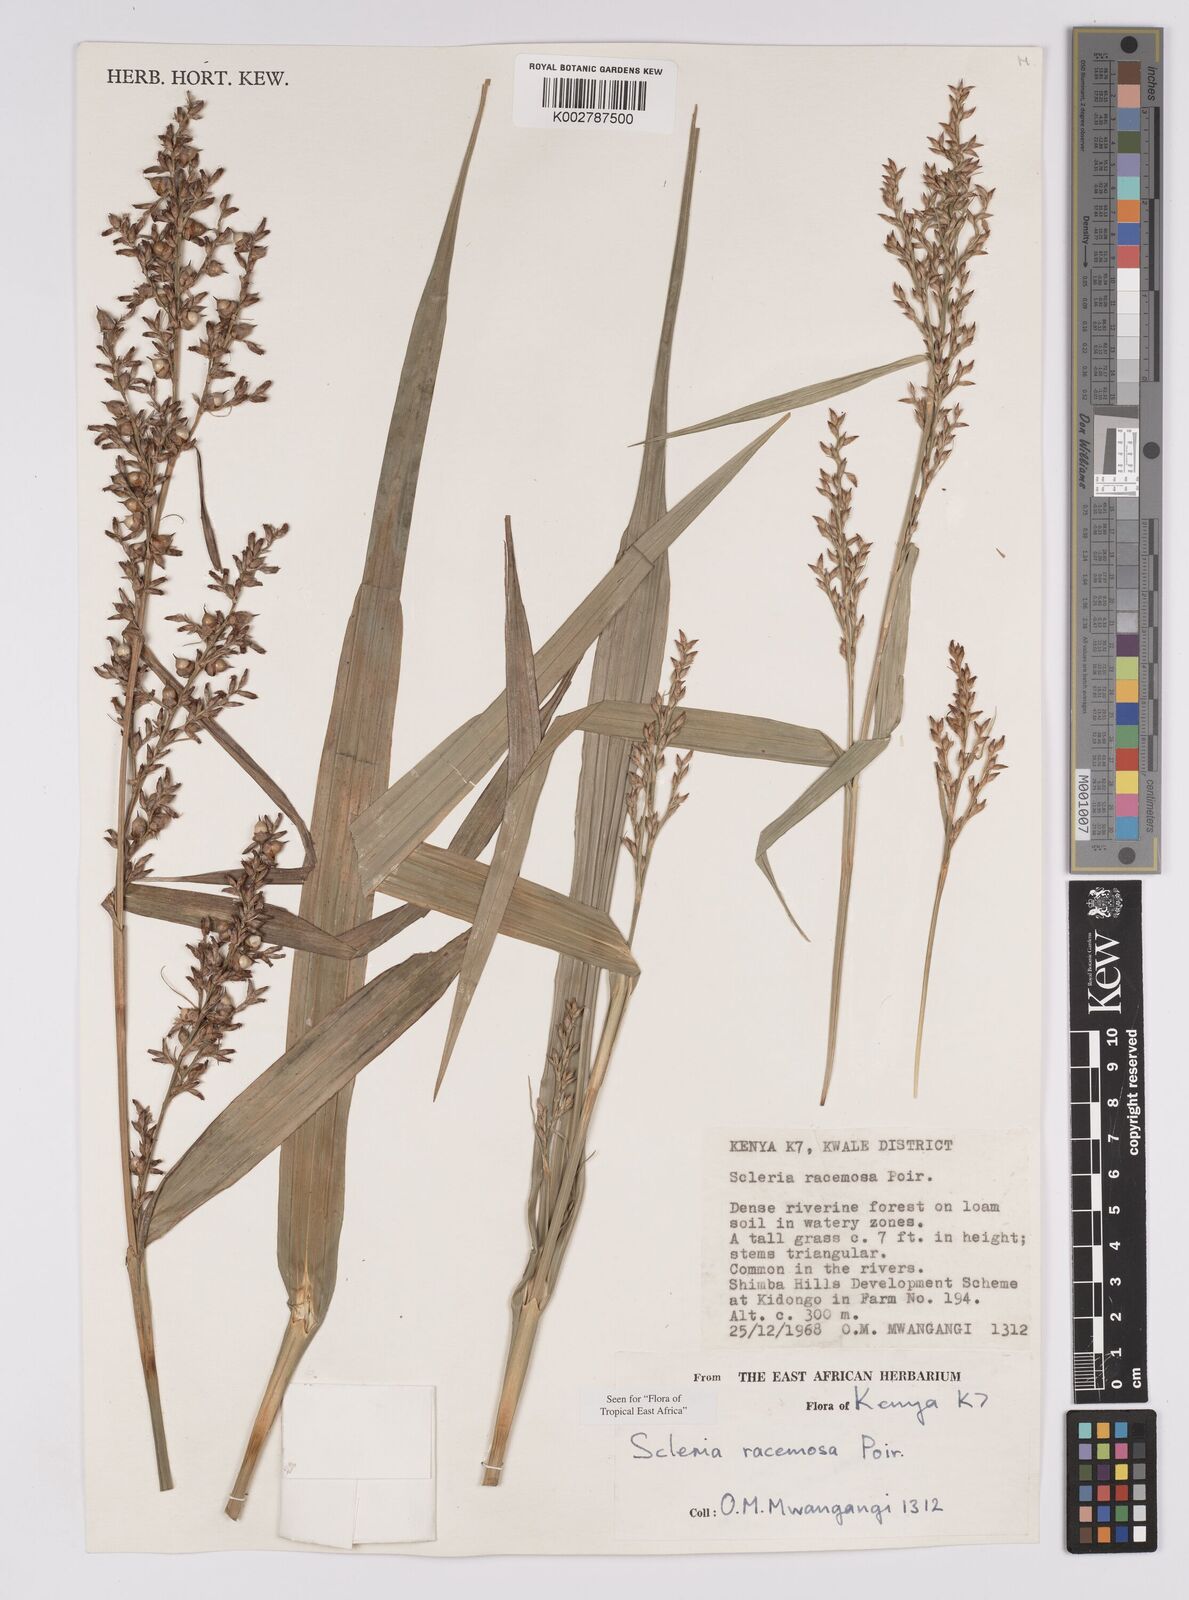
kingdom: Plantae
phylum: Tracheophyta
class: Liliopsida
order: Poales
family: Cyperaceae
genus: Scleria
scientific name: Scleria racemosa
